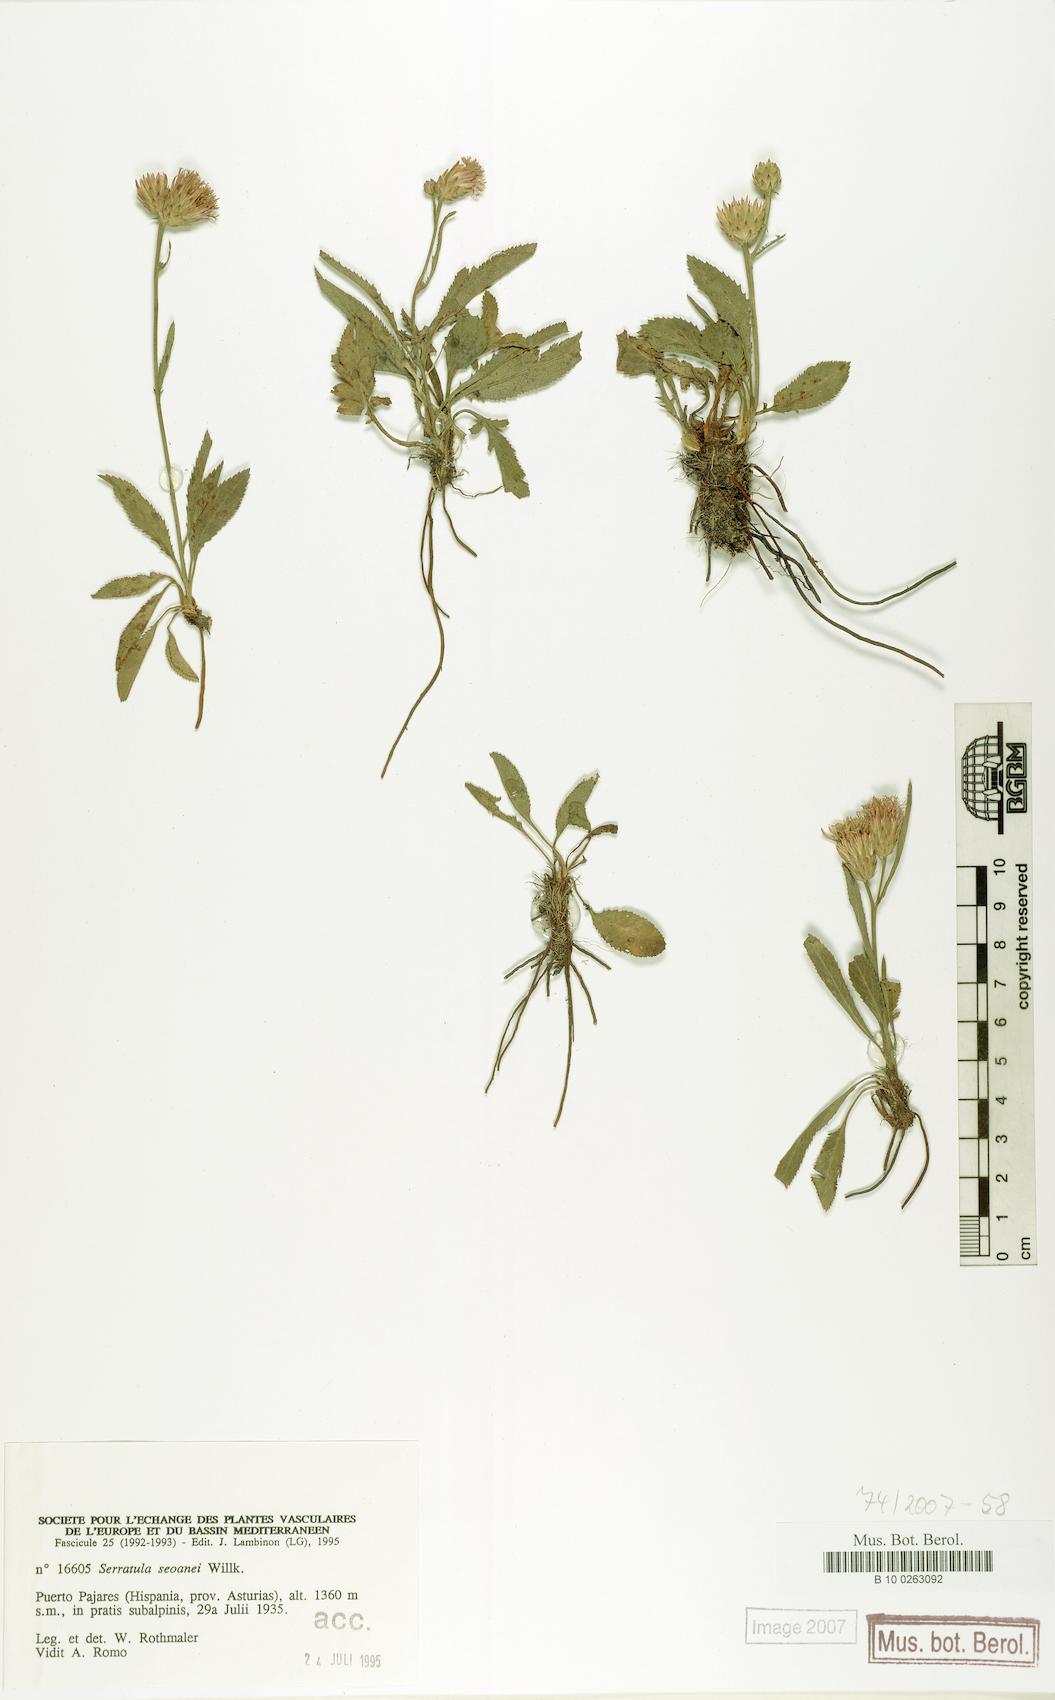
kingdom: Plantae
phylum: Tracheophyta
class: Magnoliopsida
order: Asterales
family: Asteraceae
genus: Serratula
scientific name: Serratula tinctoria
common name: Saw-wort
